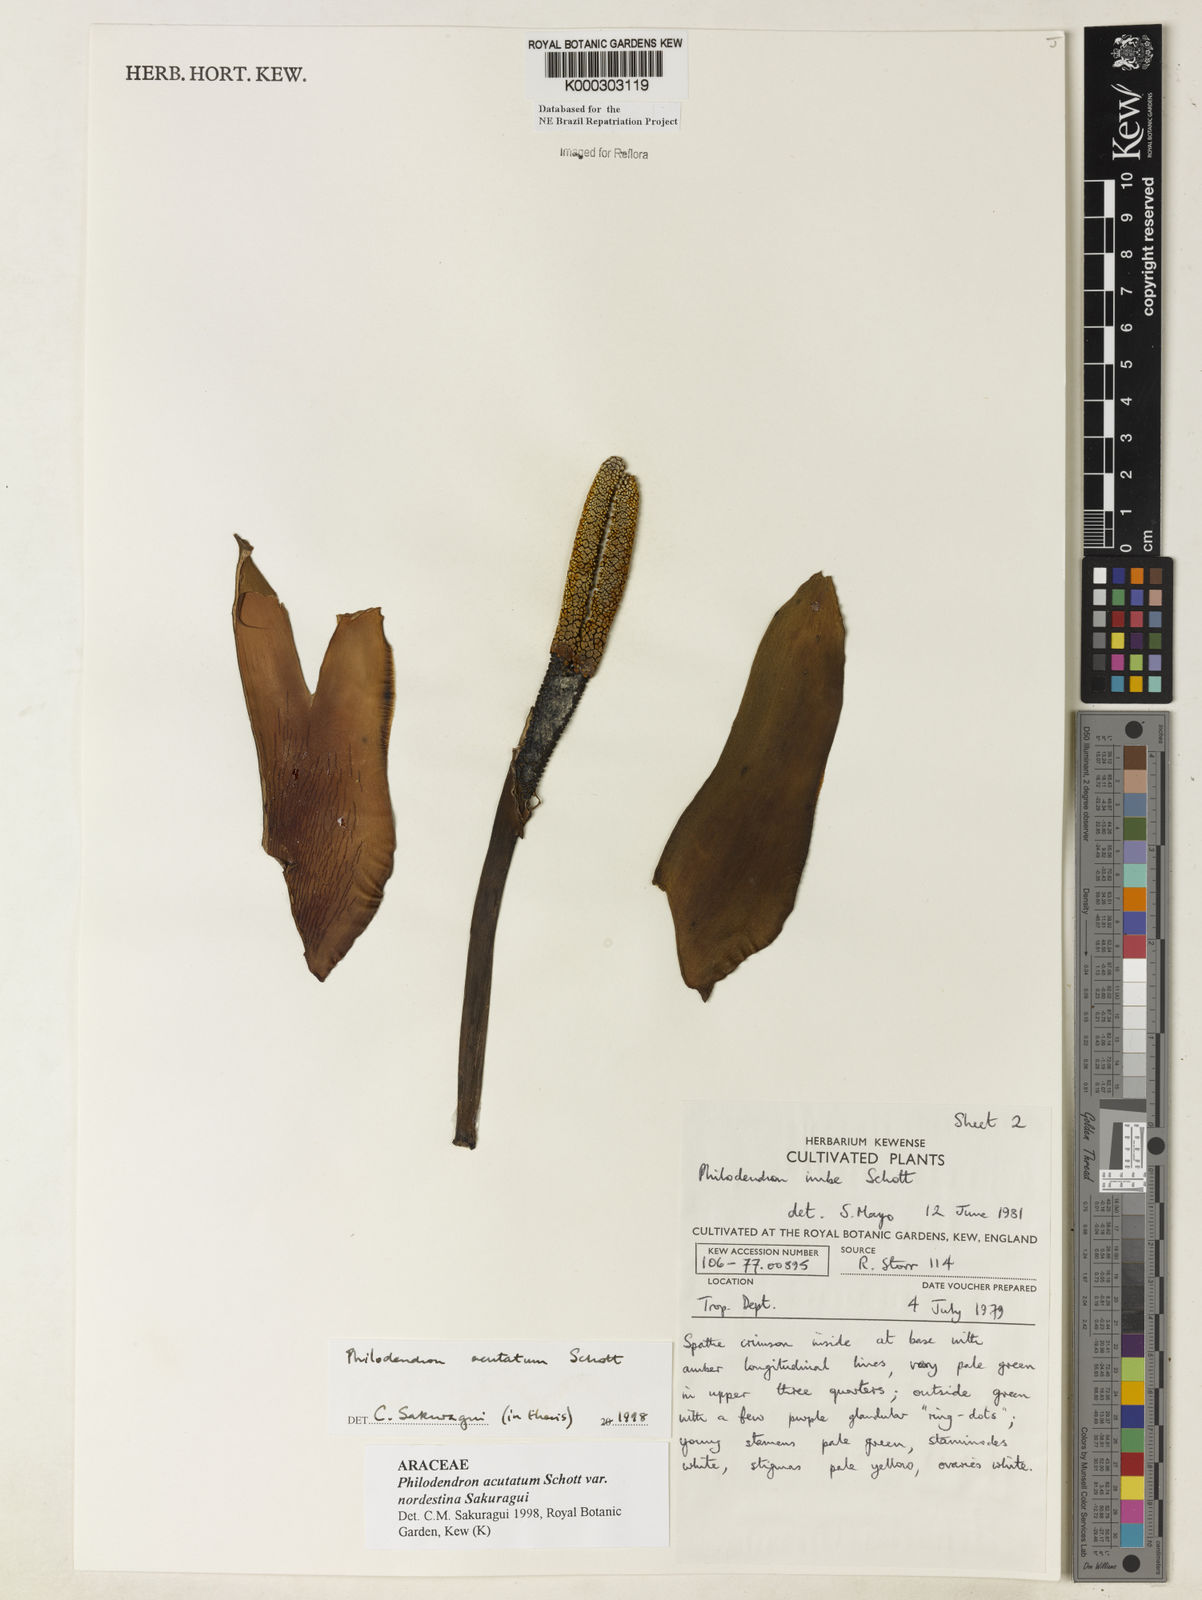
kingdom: Plantae
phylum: Tracheophyta
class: Liliopsida
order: Alismatales
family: Araceae
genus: Philodendron
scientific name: Philodendron quinquenervium
